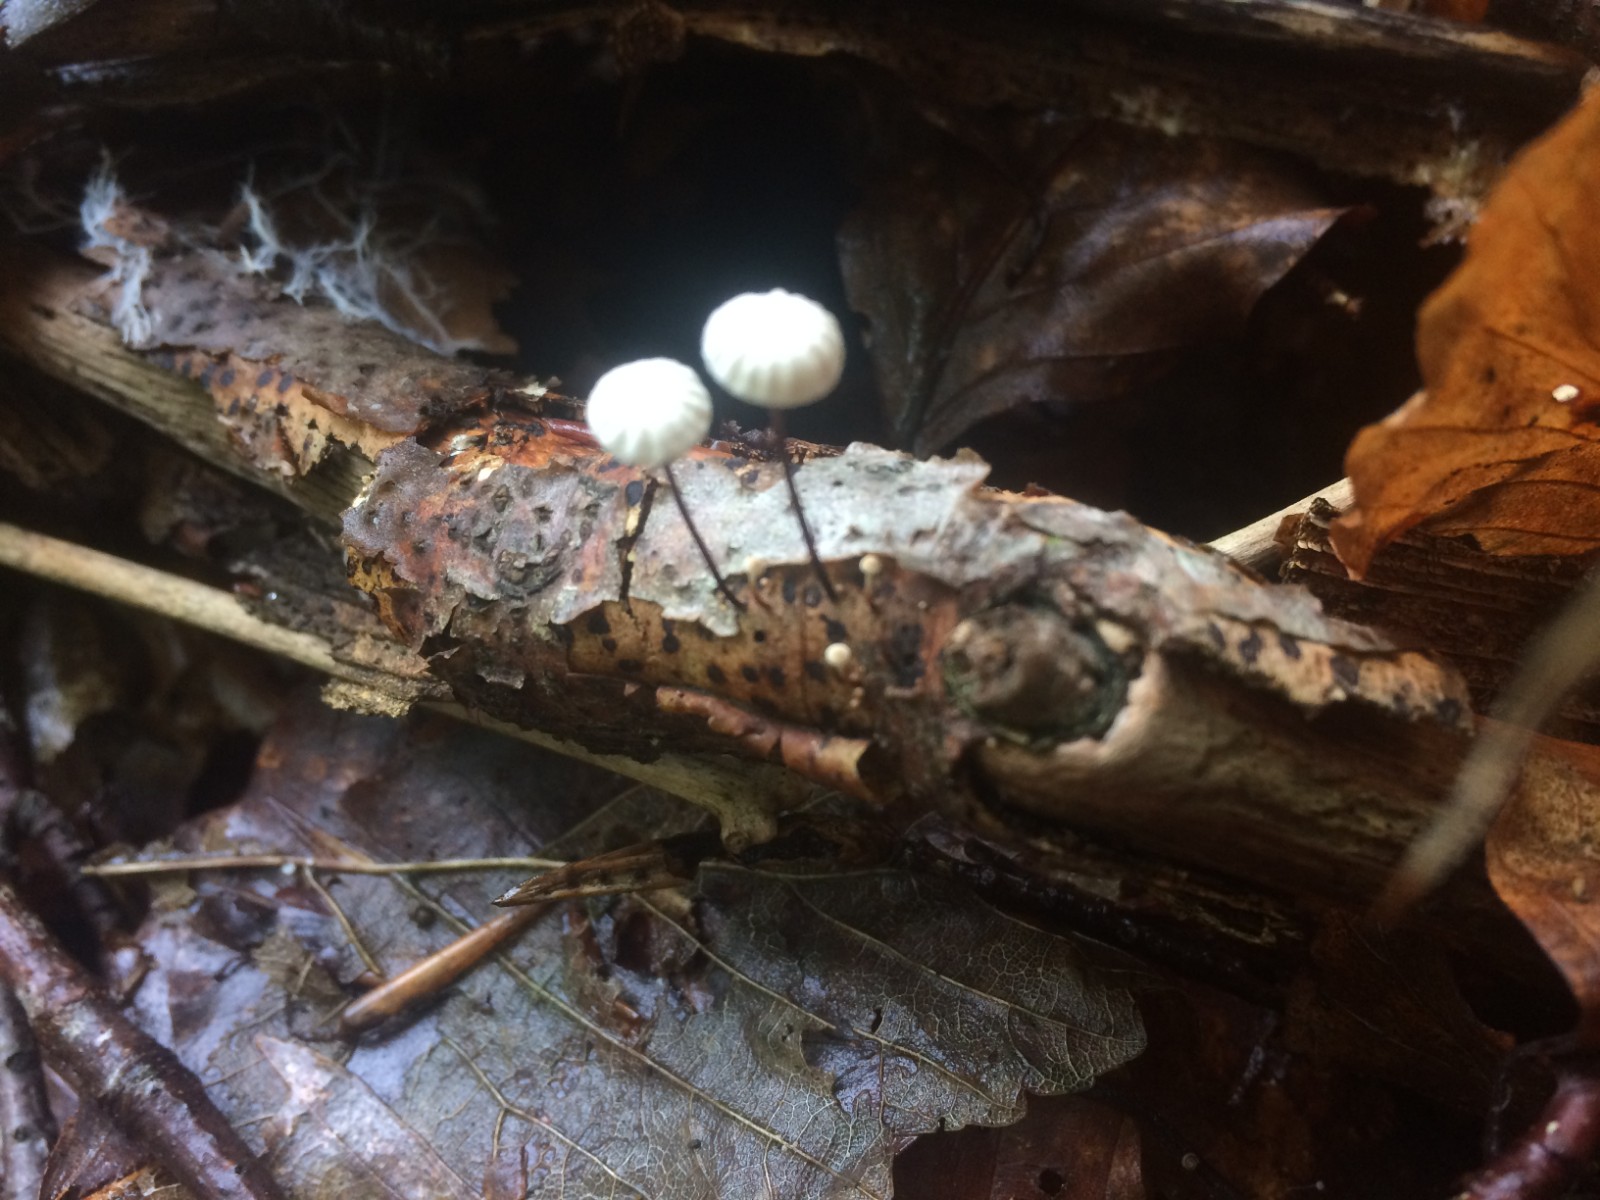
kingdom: Fungi
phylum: Basidiomycota
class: Agaricomycetes
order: Agaricales
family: Marasmiaceae
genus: Marasmius
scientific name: Marasmius rotula
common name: hjul-bruskhat
